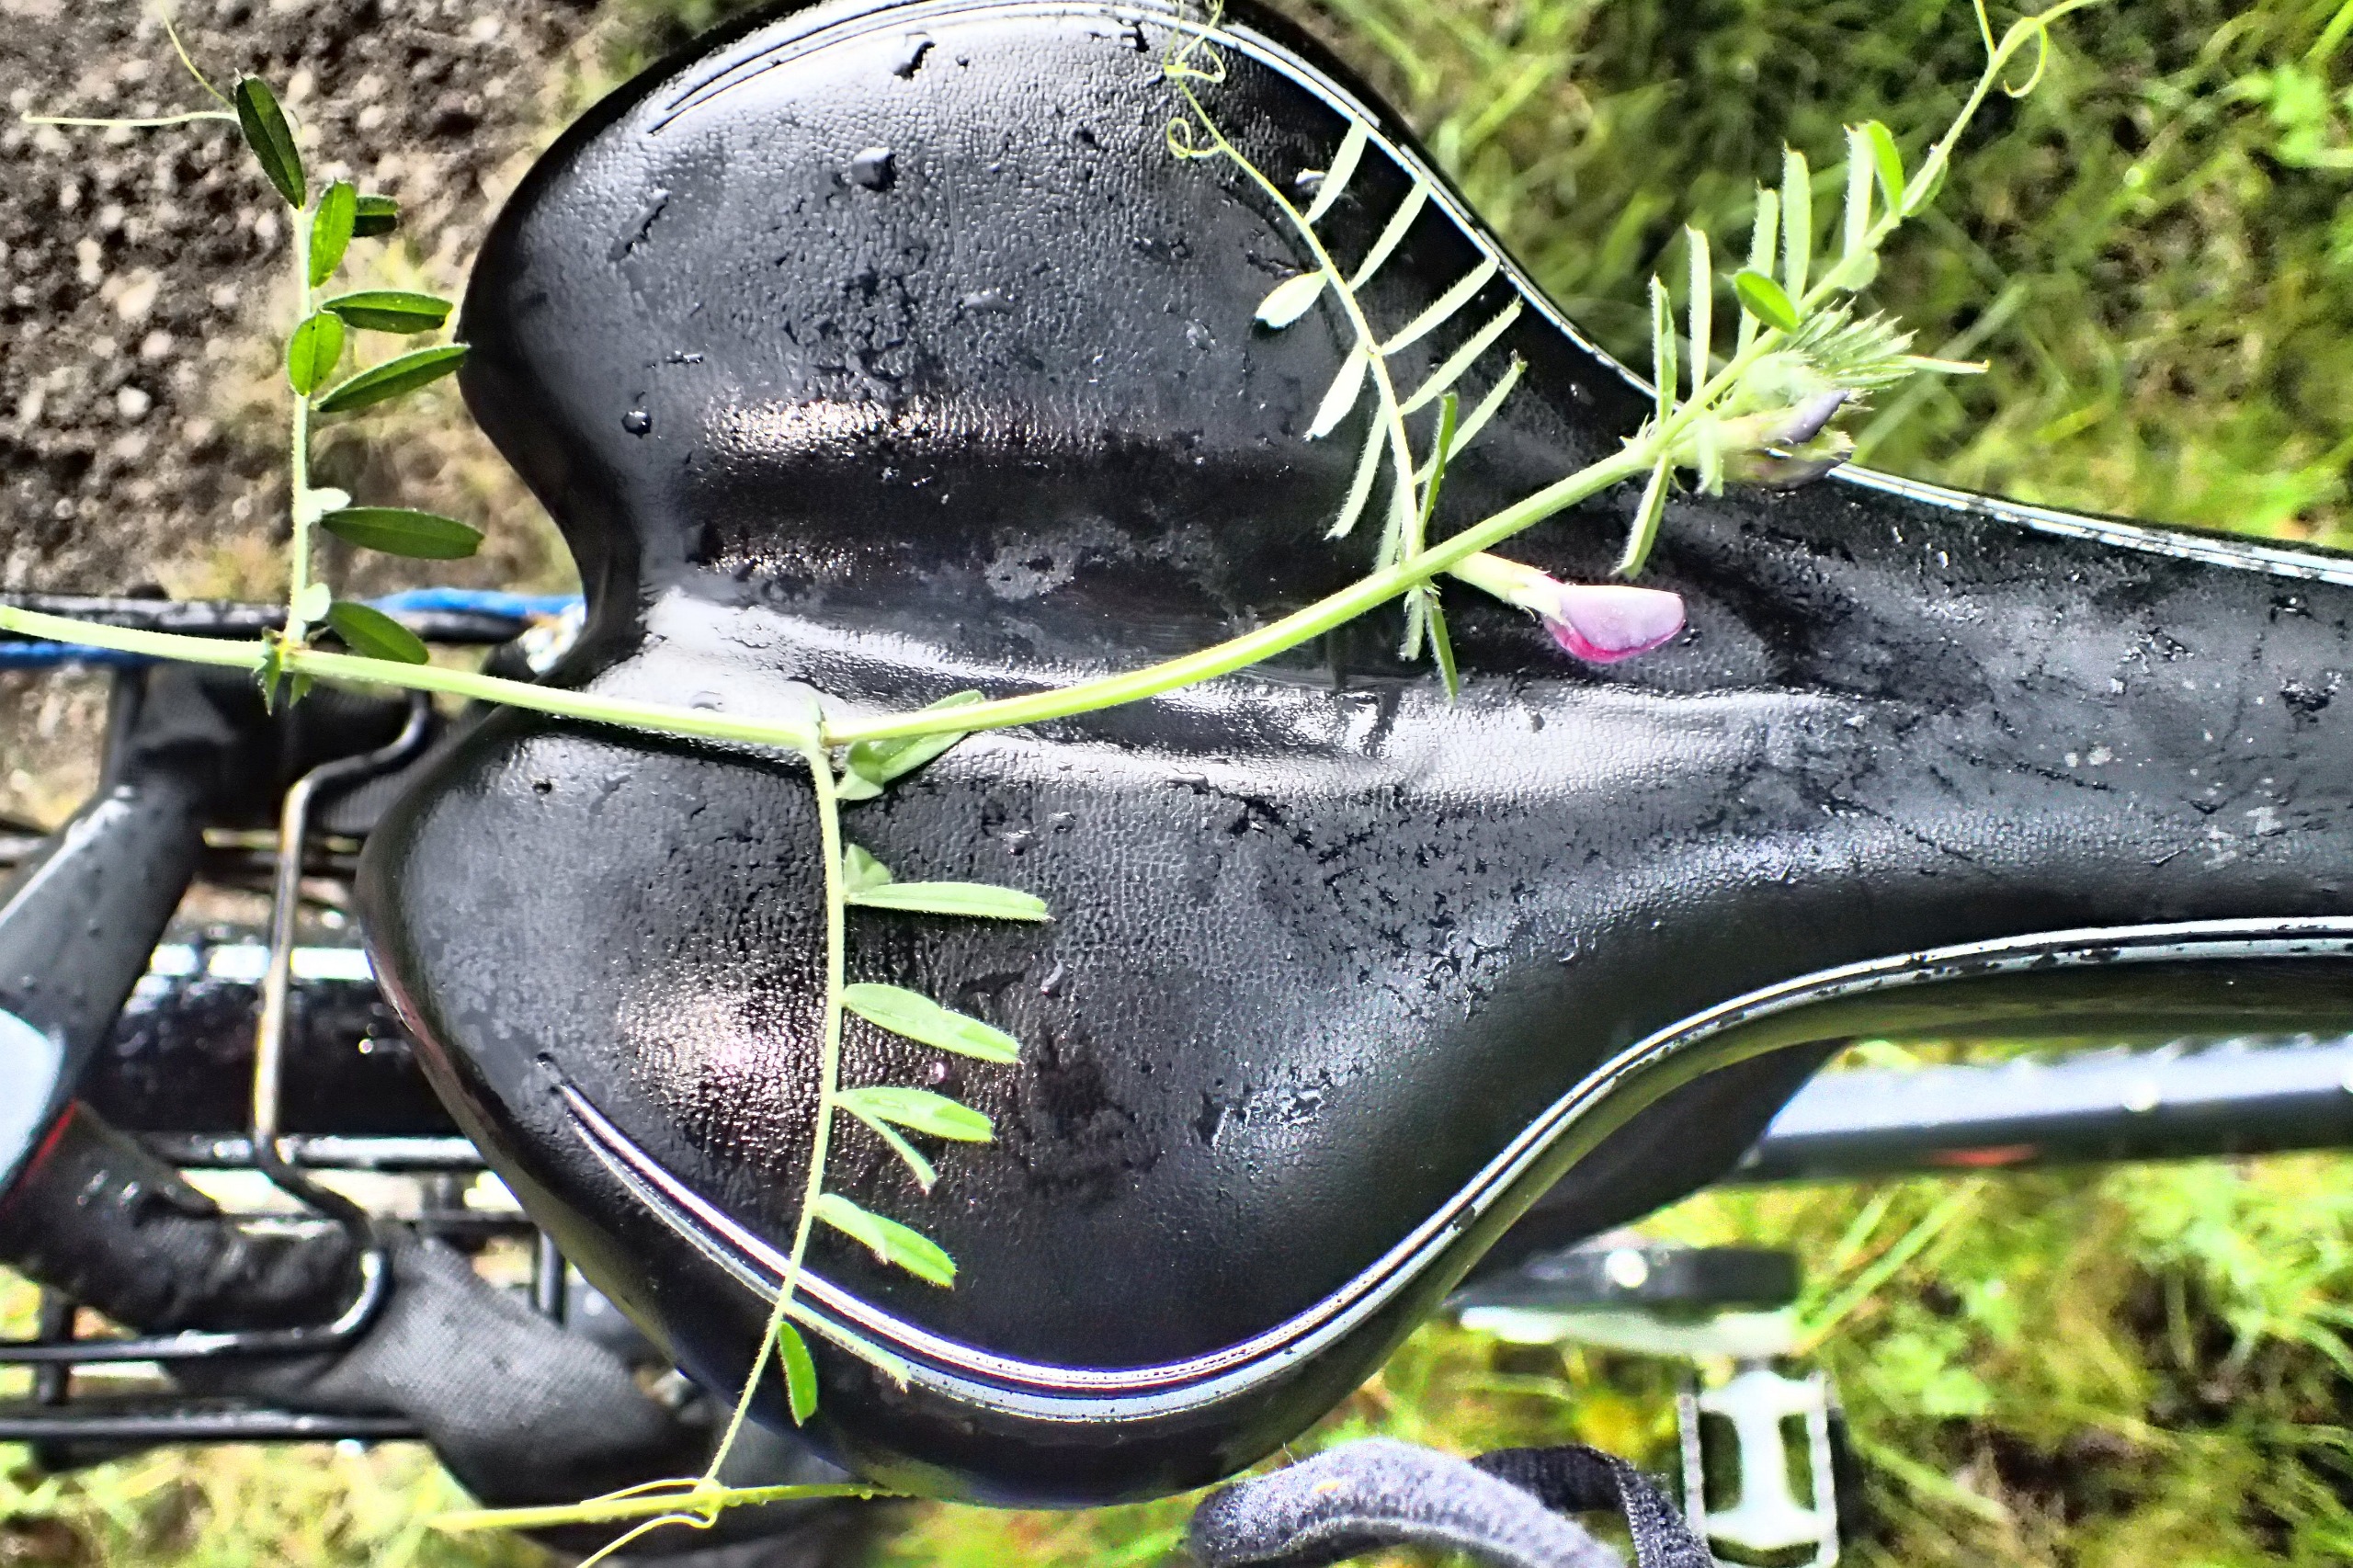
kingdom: Plantae
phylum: Tracheophyta
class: Magnoliopsida
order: Fabales
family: Fabaceae
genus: Vicia
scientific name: Vicia sativa
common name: Smalbladet vikke
